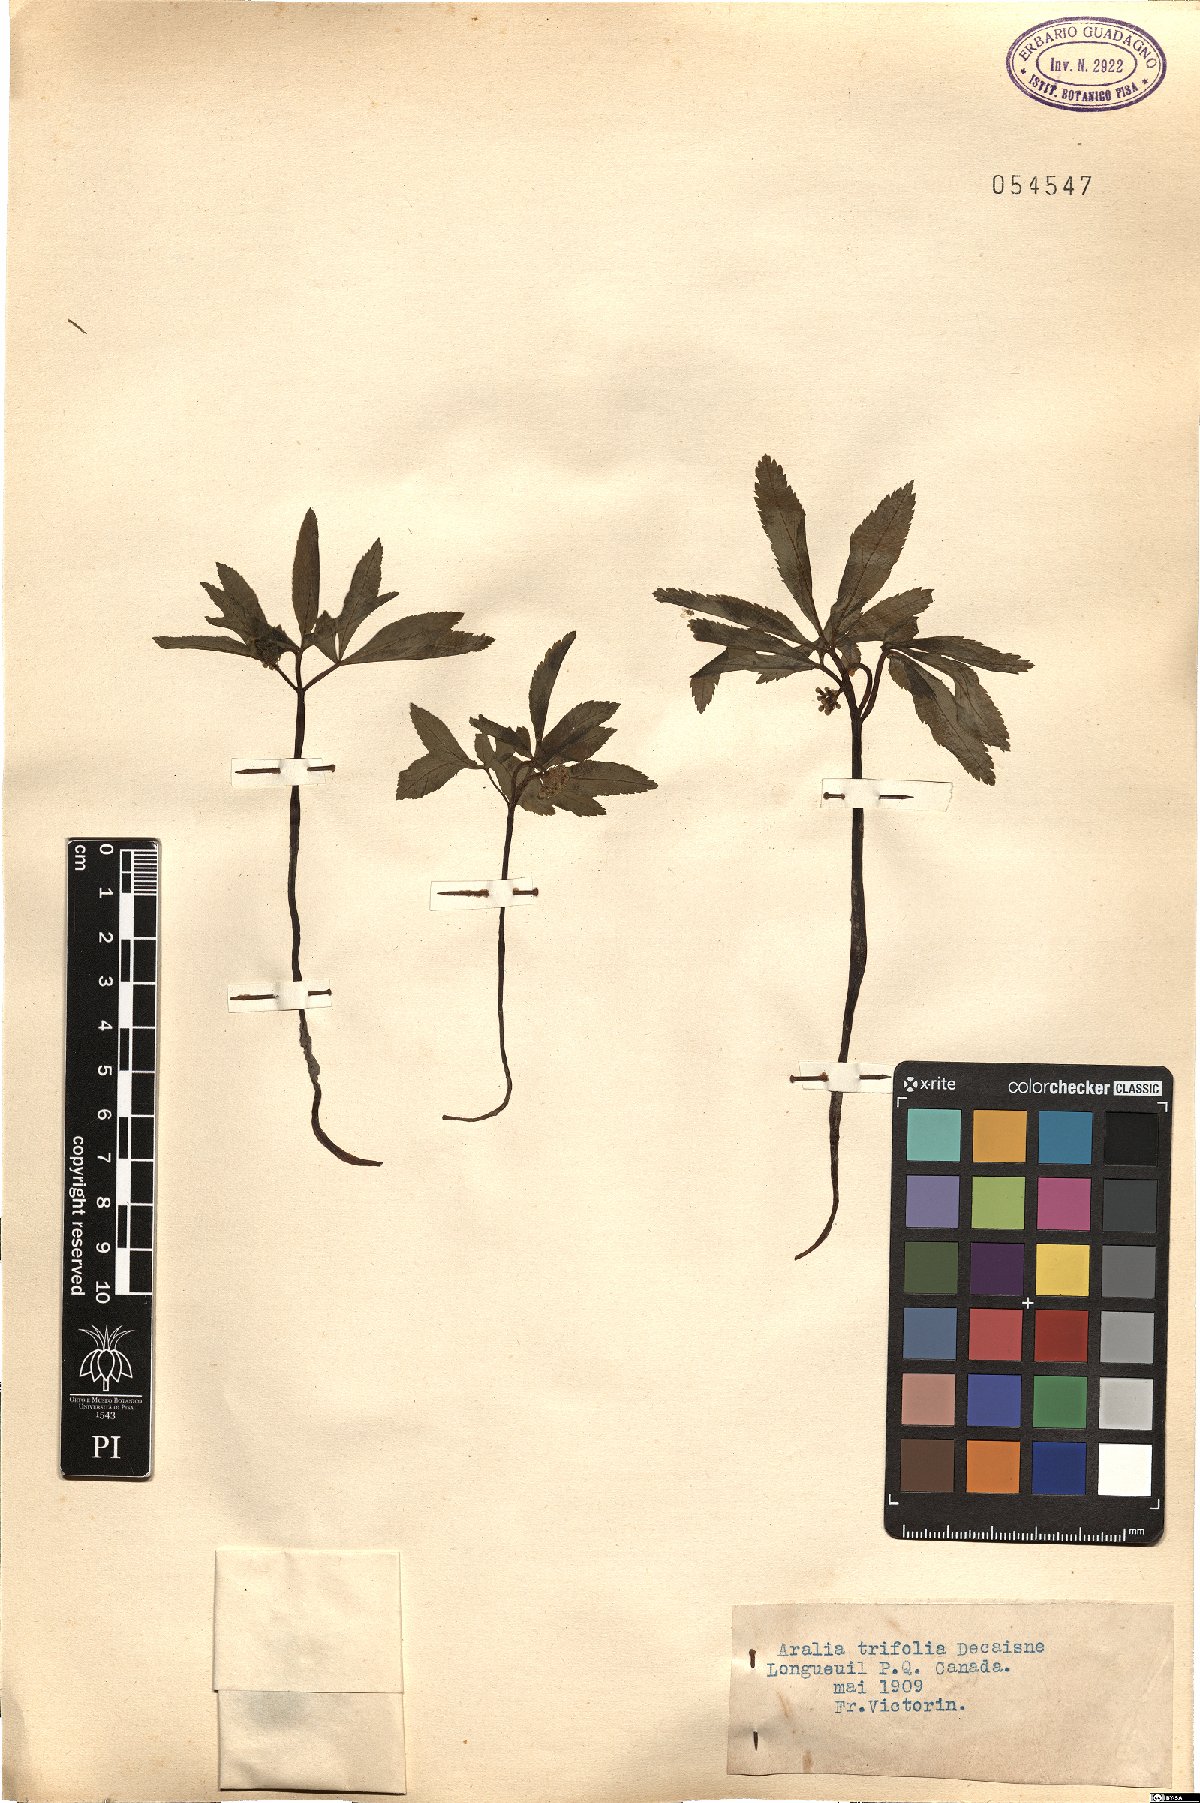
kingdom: Plantae
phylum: Tracheophyta
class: Magnoliopsida
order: Apiales
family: Araliaceae
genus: Panax
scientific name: Panax trifolius
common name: Dwarf ginseng
